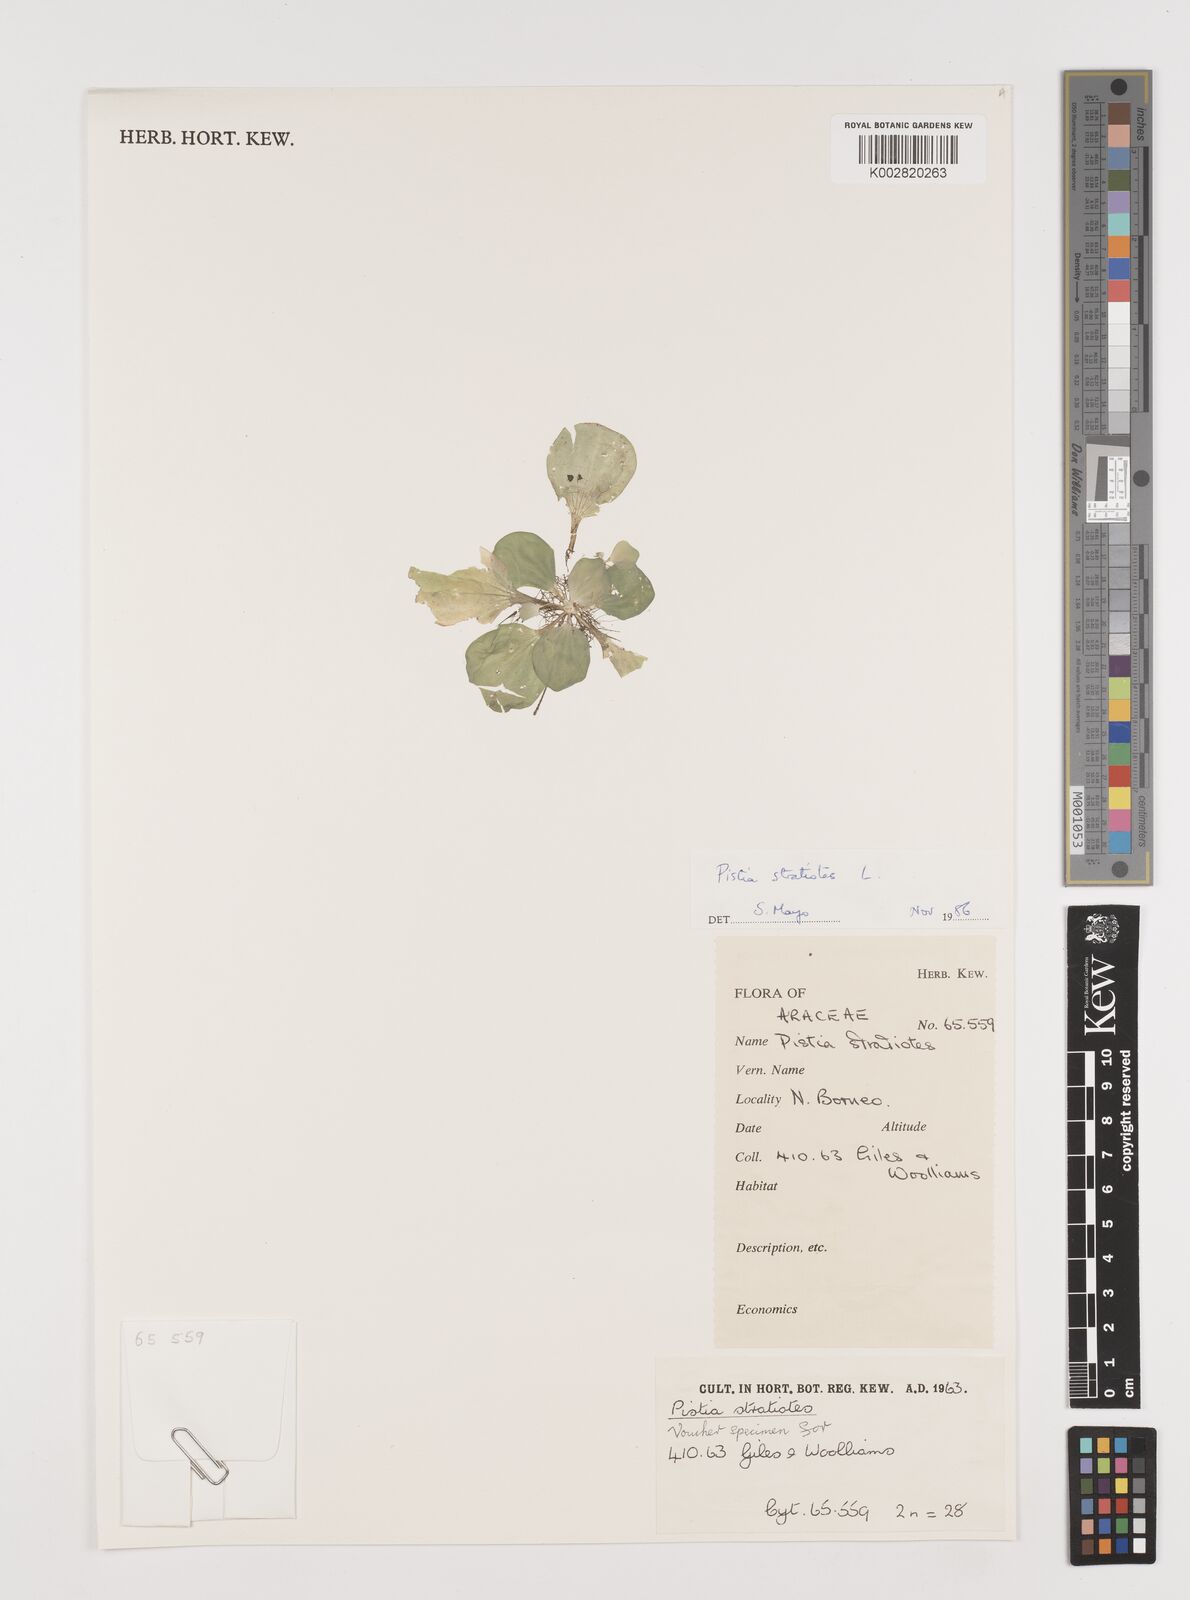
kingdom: Plantae
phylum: Tracheophyta
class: Liliopsida
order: Alismatales
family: Araceae
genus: Pistia
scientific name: Pistia stratiotes
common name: Water lettuce
